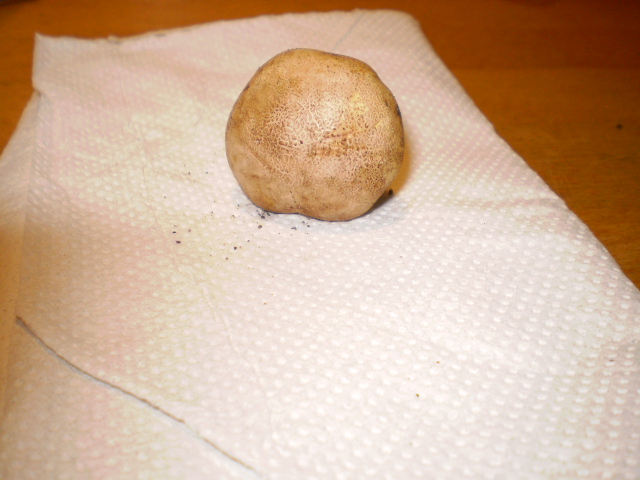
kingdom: Fungi
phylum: Basidiomycota
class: Agaricomycetes
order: Boletales
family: Sclerodermataceae
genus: Scleroderma
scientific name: Scleroderma verrucosum
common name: stilket bruskbold
